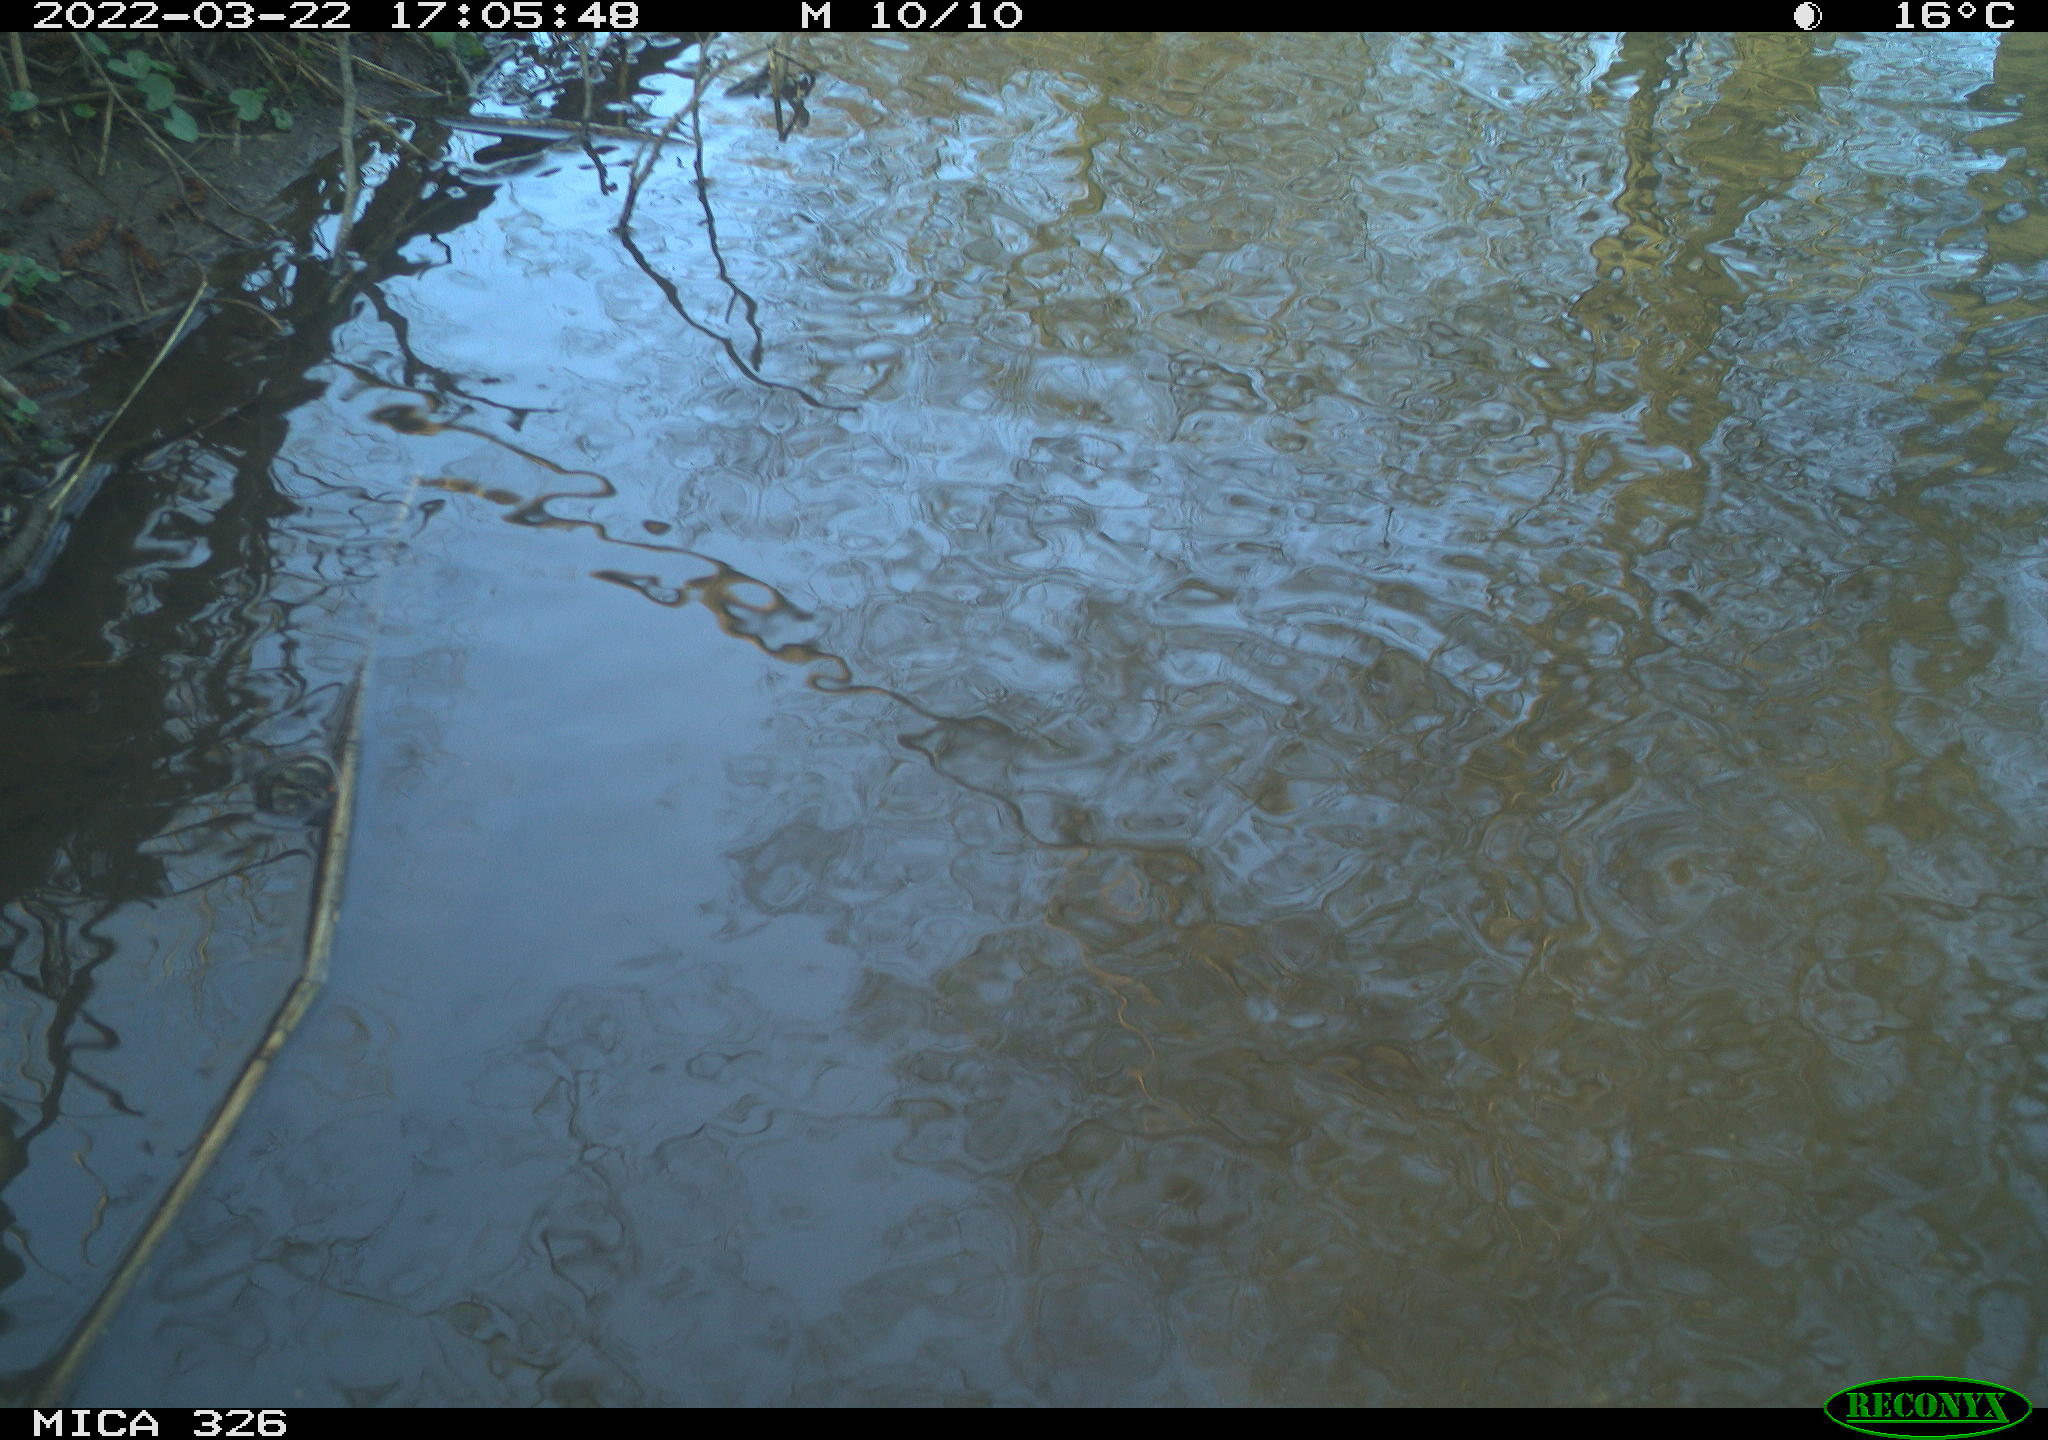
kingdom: Animalia
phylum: Chordata
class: Mammalia
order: Rodentia
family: Cricetidae
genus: Ondatra
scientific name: Ondatra zibethicus
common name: Muskrat
